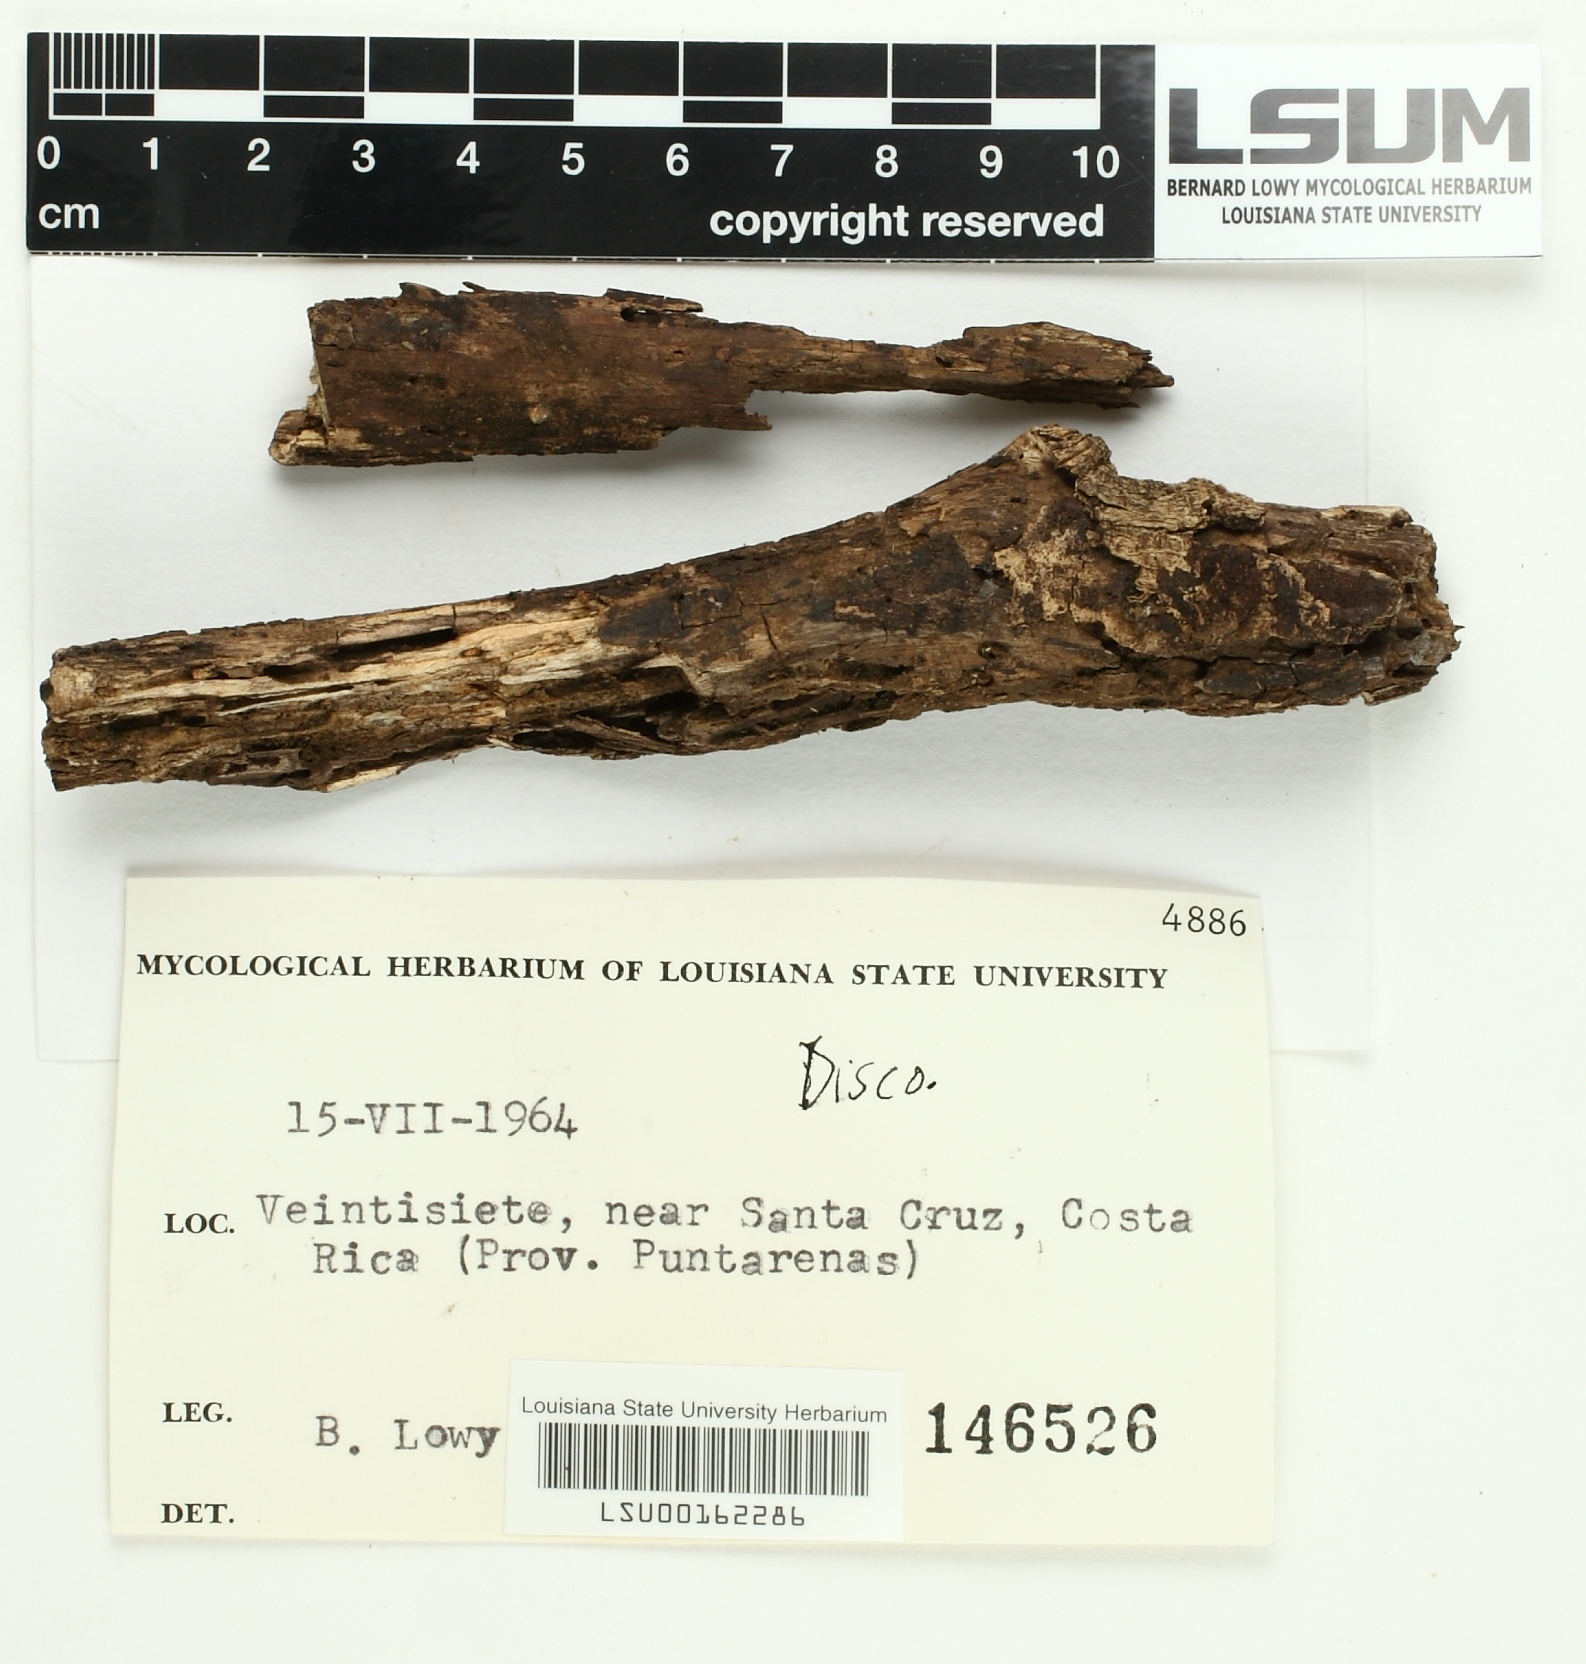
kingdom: Fungi
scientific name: Fungi
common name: Fungi
